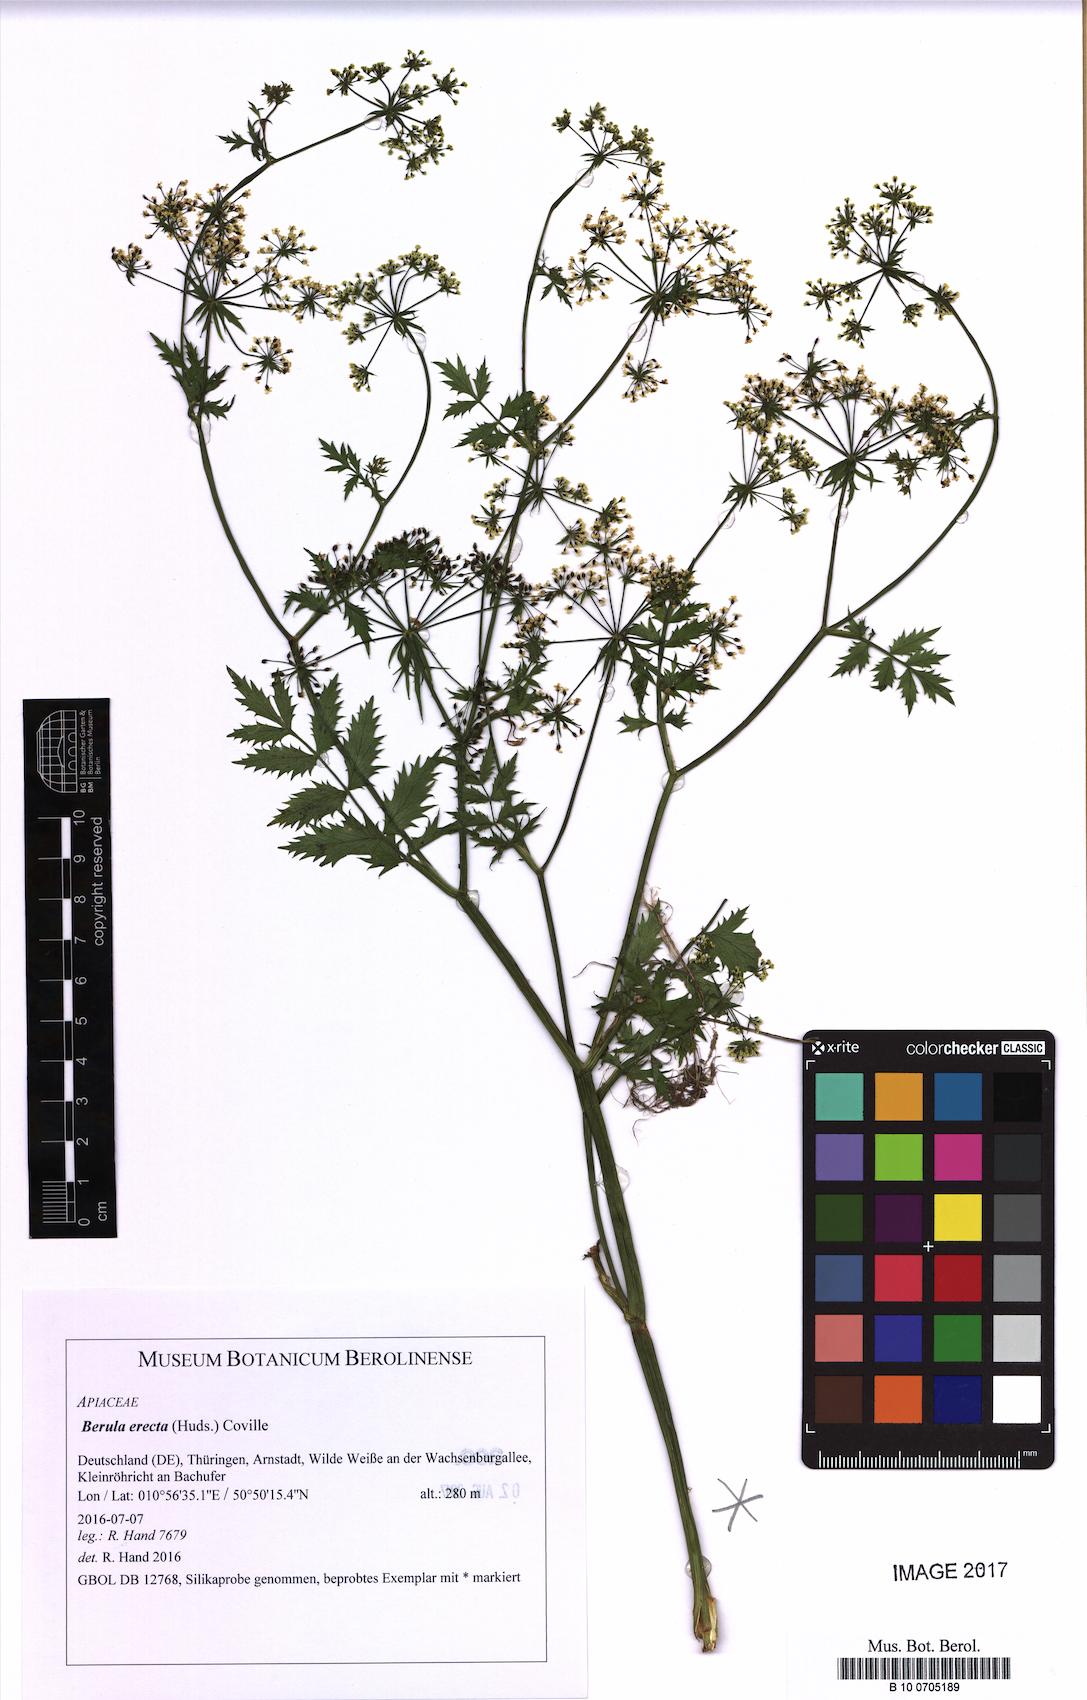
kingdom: Plantae
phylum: Tracheophyta
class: Magnoliopsida
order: Apiales
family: Apiaceae
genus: Berula
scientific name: Berula erecta
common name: Lesser water-parsnip
